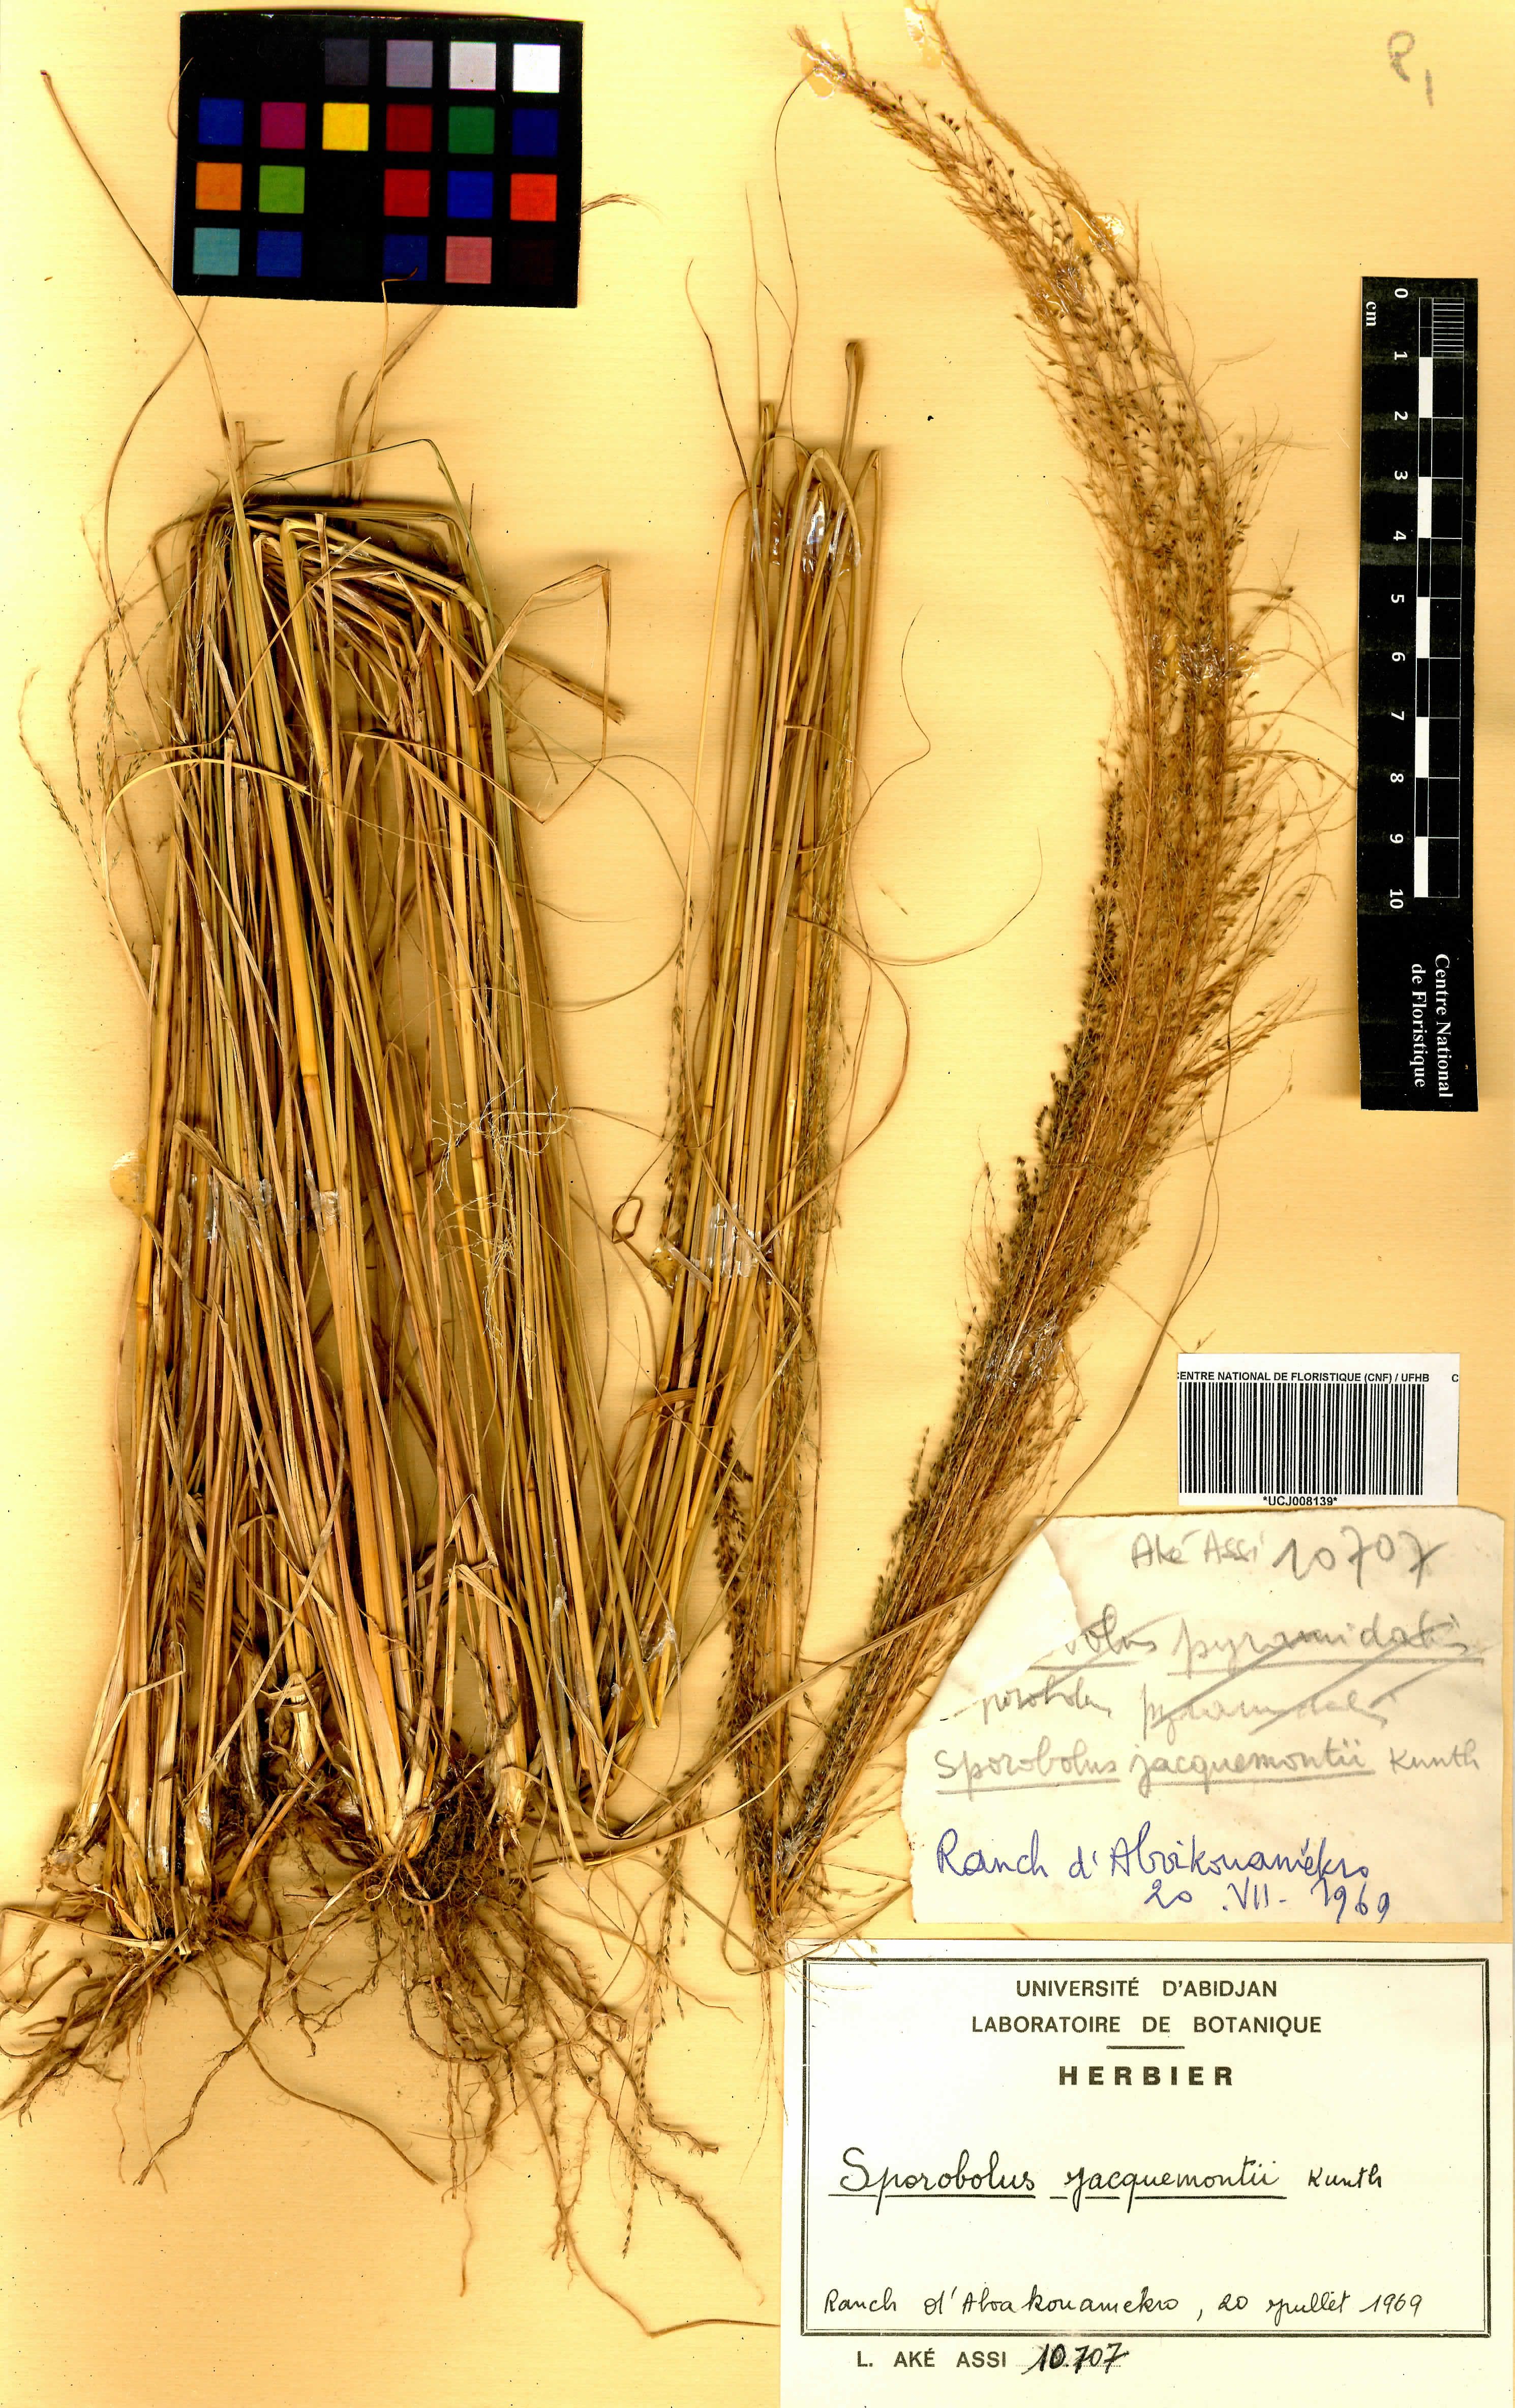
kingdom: Plantae
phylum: Tracheophyta
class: Liliopsida
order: Poales
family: Poaceae
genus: Sporobolus
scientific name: Sporobolus pyramidalis
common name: West indian dropseed
